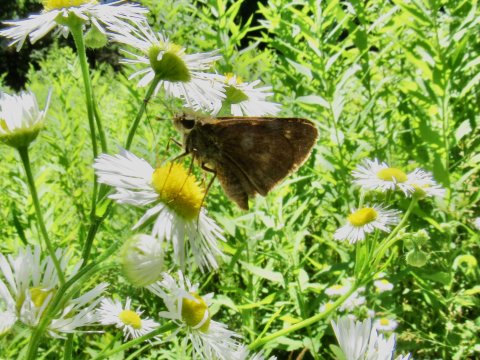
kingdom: Animalia
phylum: Arthropoda
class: Insecta
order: Lepidoptera
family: Hesperiidae
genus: Polites
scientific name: Polites egeremet
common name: Northern Broken-Dash
